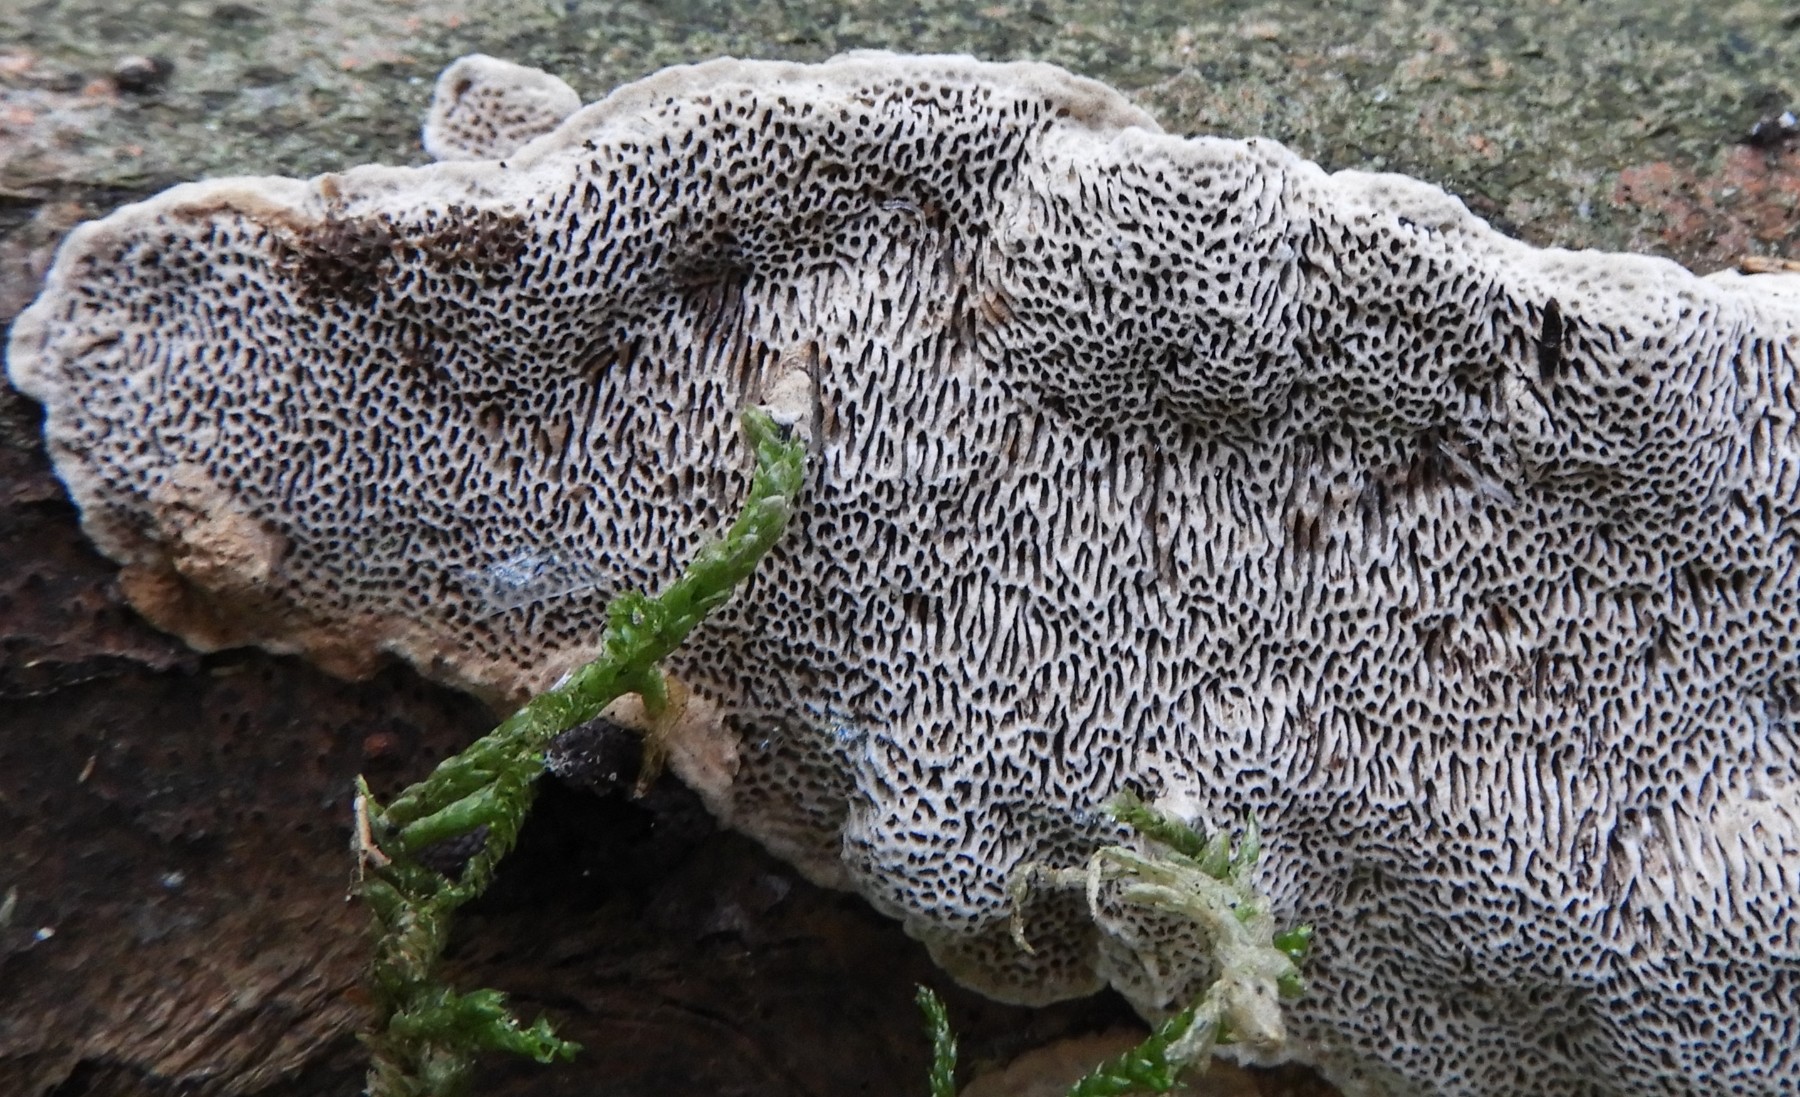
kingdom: Fungi
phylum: Basidiomycota
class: Agaricomycetes
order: Polyporales
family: Polyporaceae
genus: Podofomes
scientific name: Podofomes mollis
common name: blød begporesvamp
